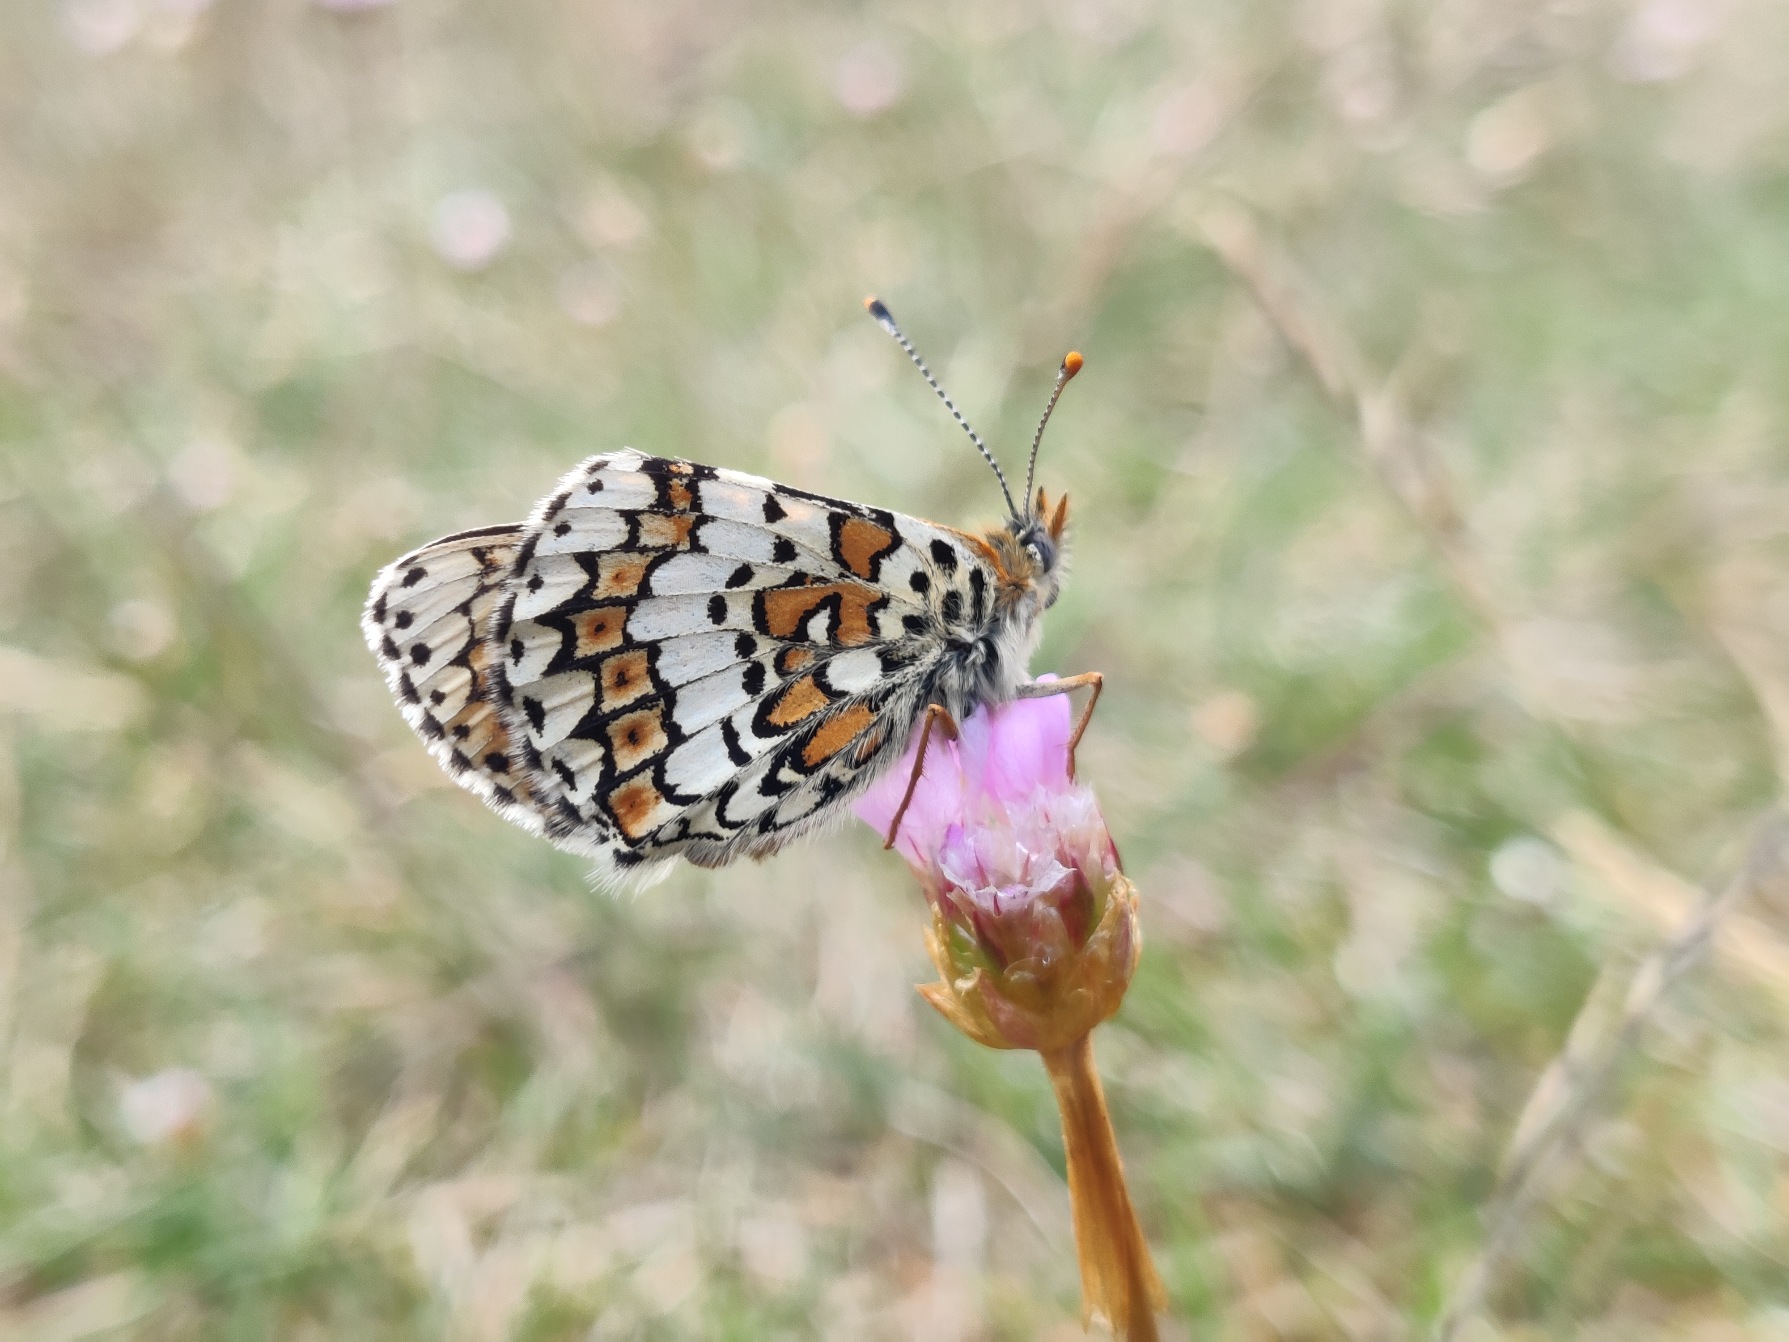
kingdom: Animalia
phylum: Arthropoda
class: Insecta
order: Lepidoptera
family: Nymphalidae
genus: Melitaea
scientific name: Melitaea cinxia
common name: Okkergul pletvinge
